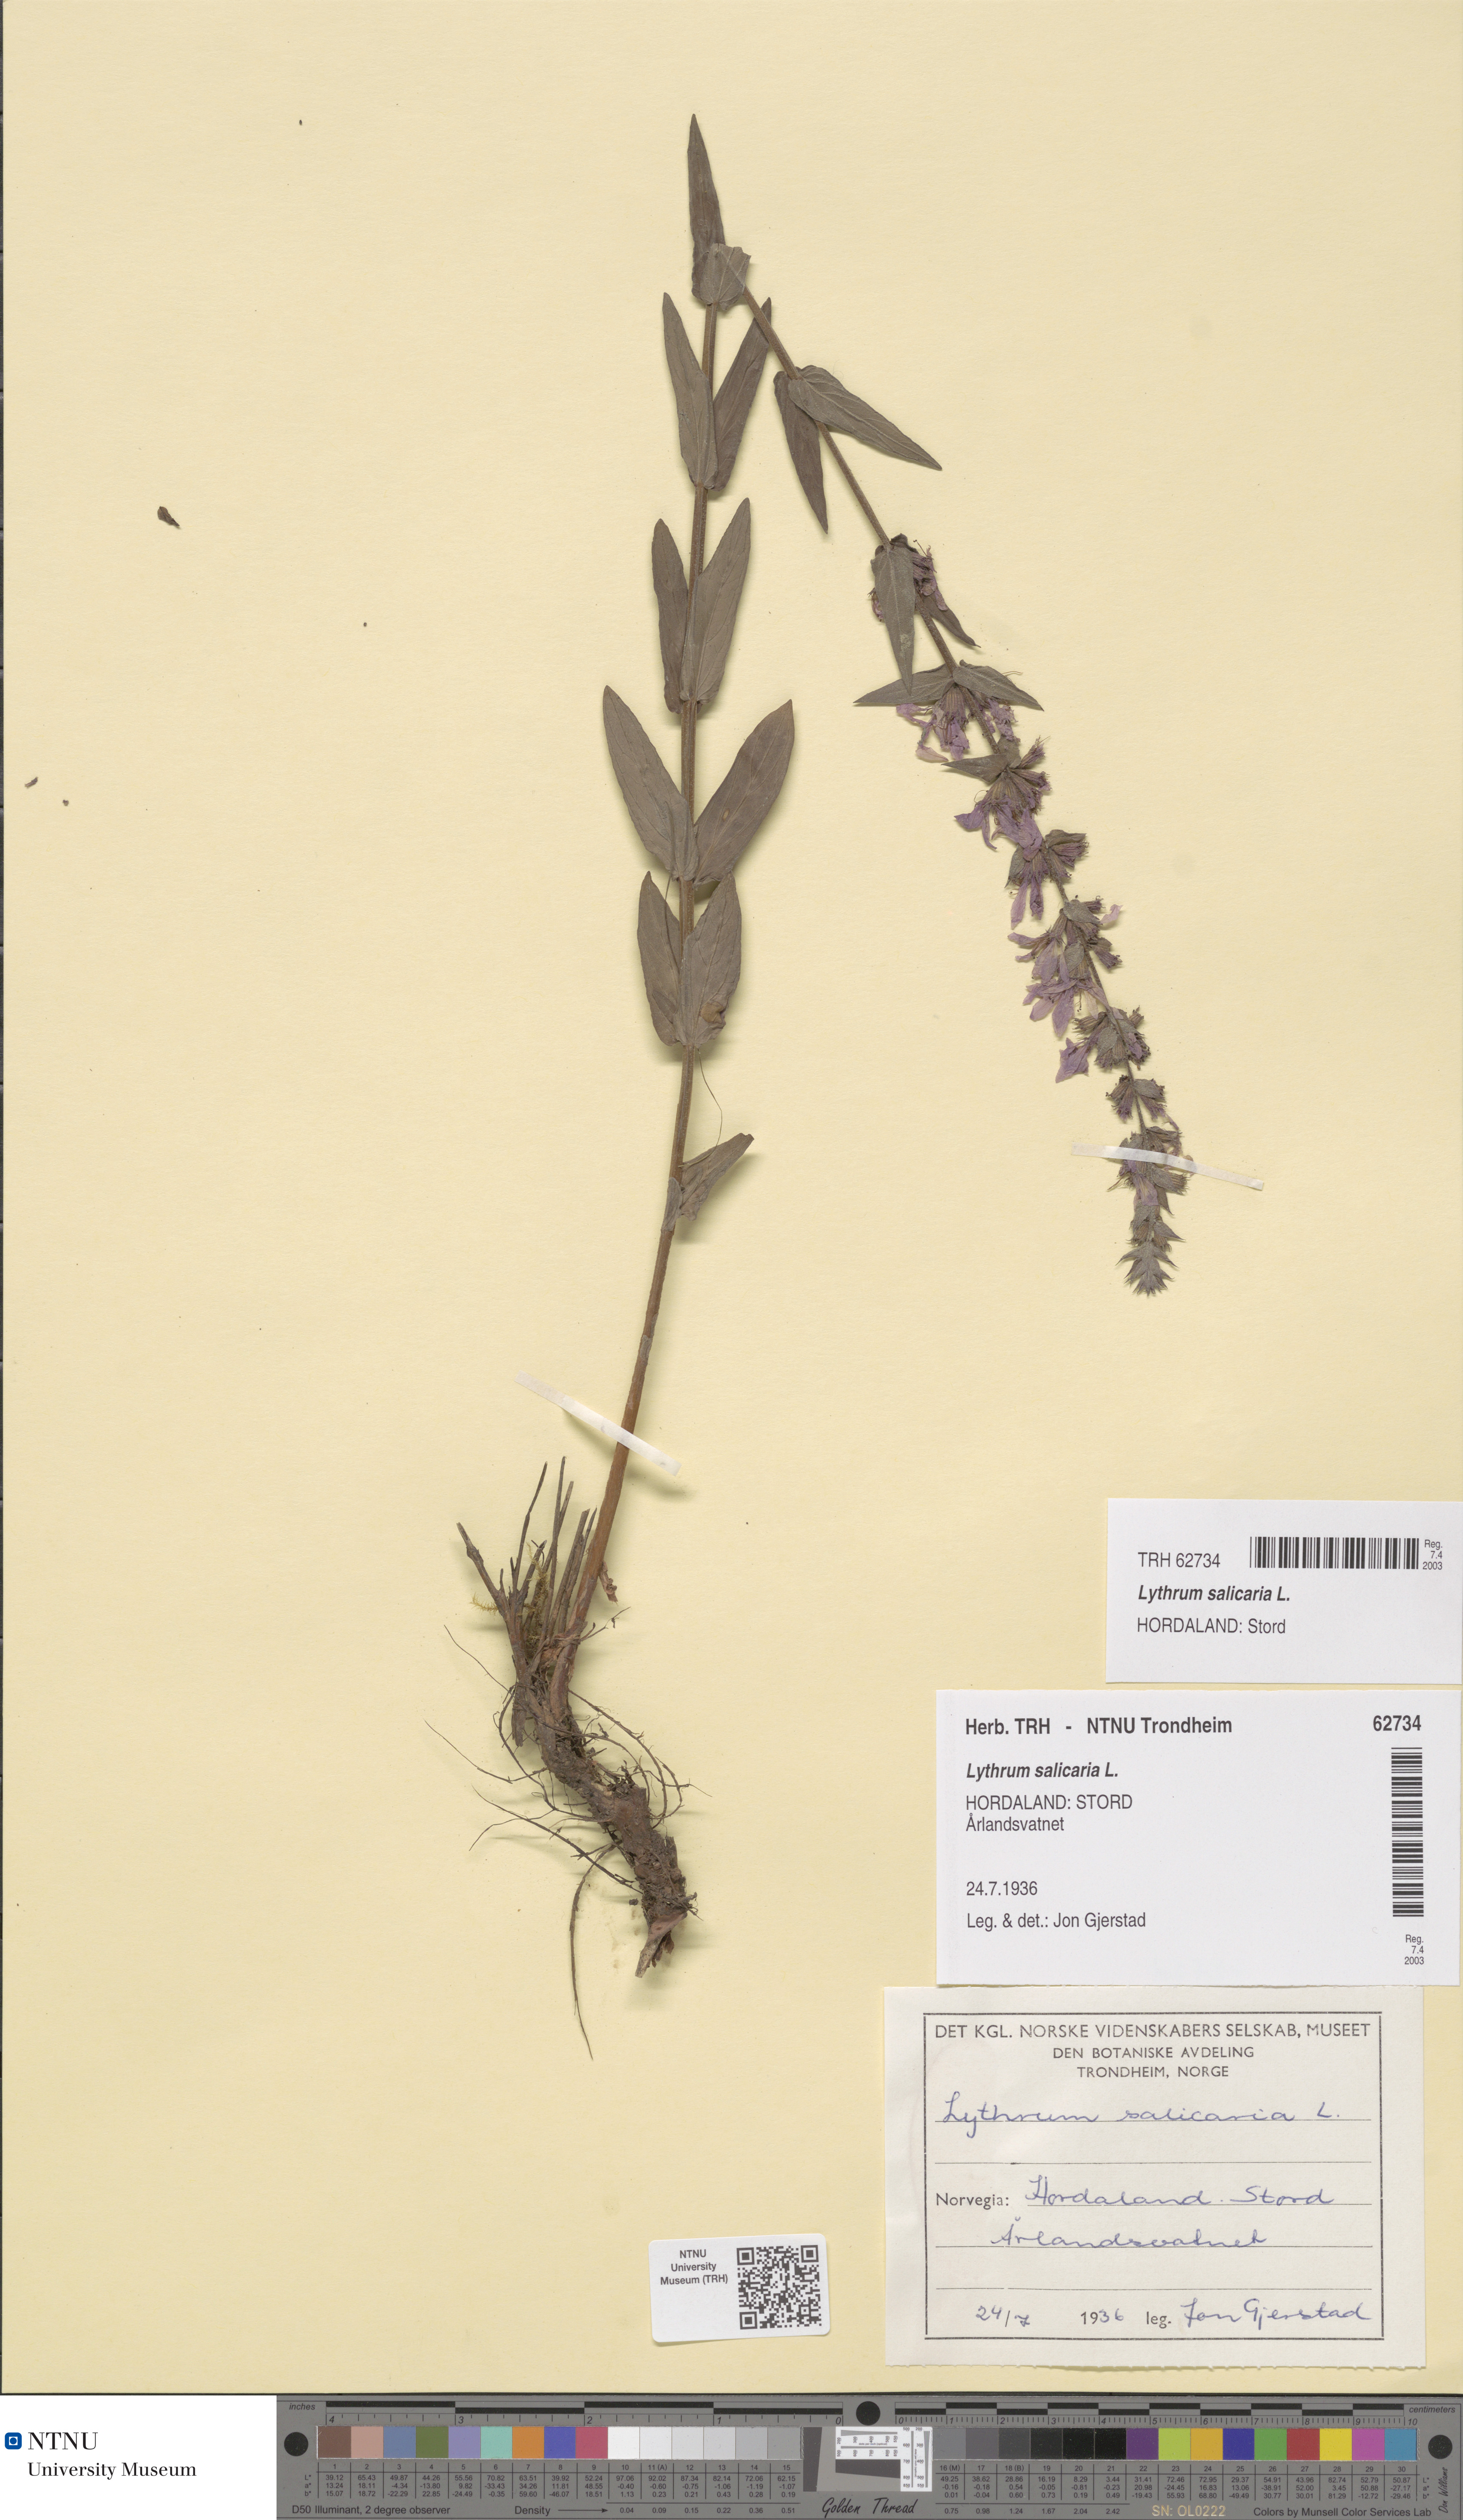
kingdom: Plantae
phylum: Tracheophyta
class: Magnoliopsida
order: Myrtales
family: Lythraceae
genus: Lythrum
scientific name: Lythrum salicaria
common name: Purple loosestrife
